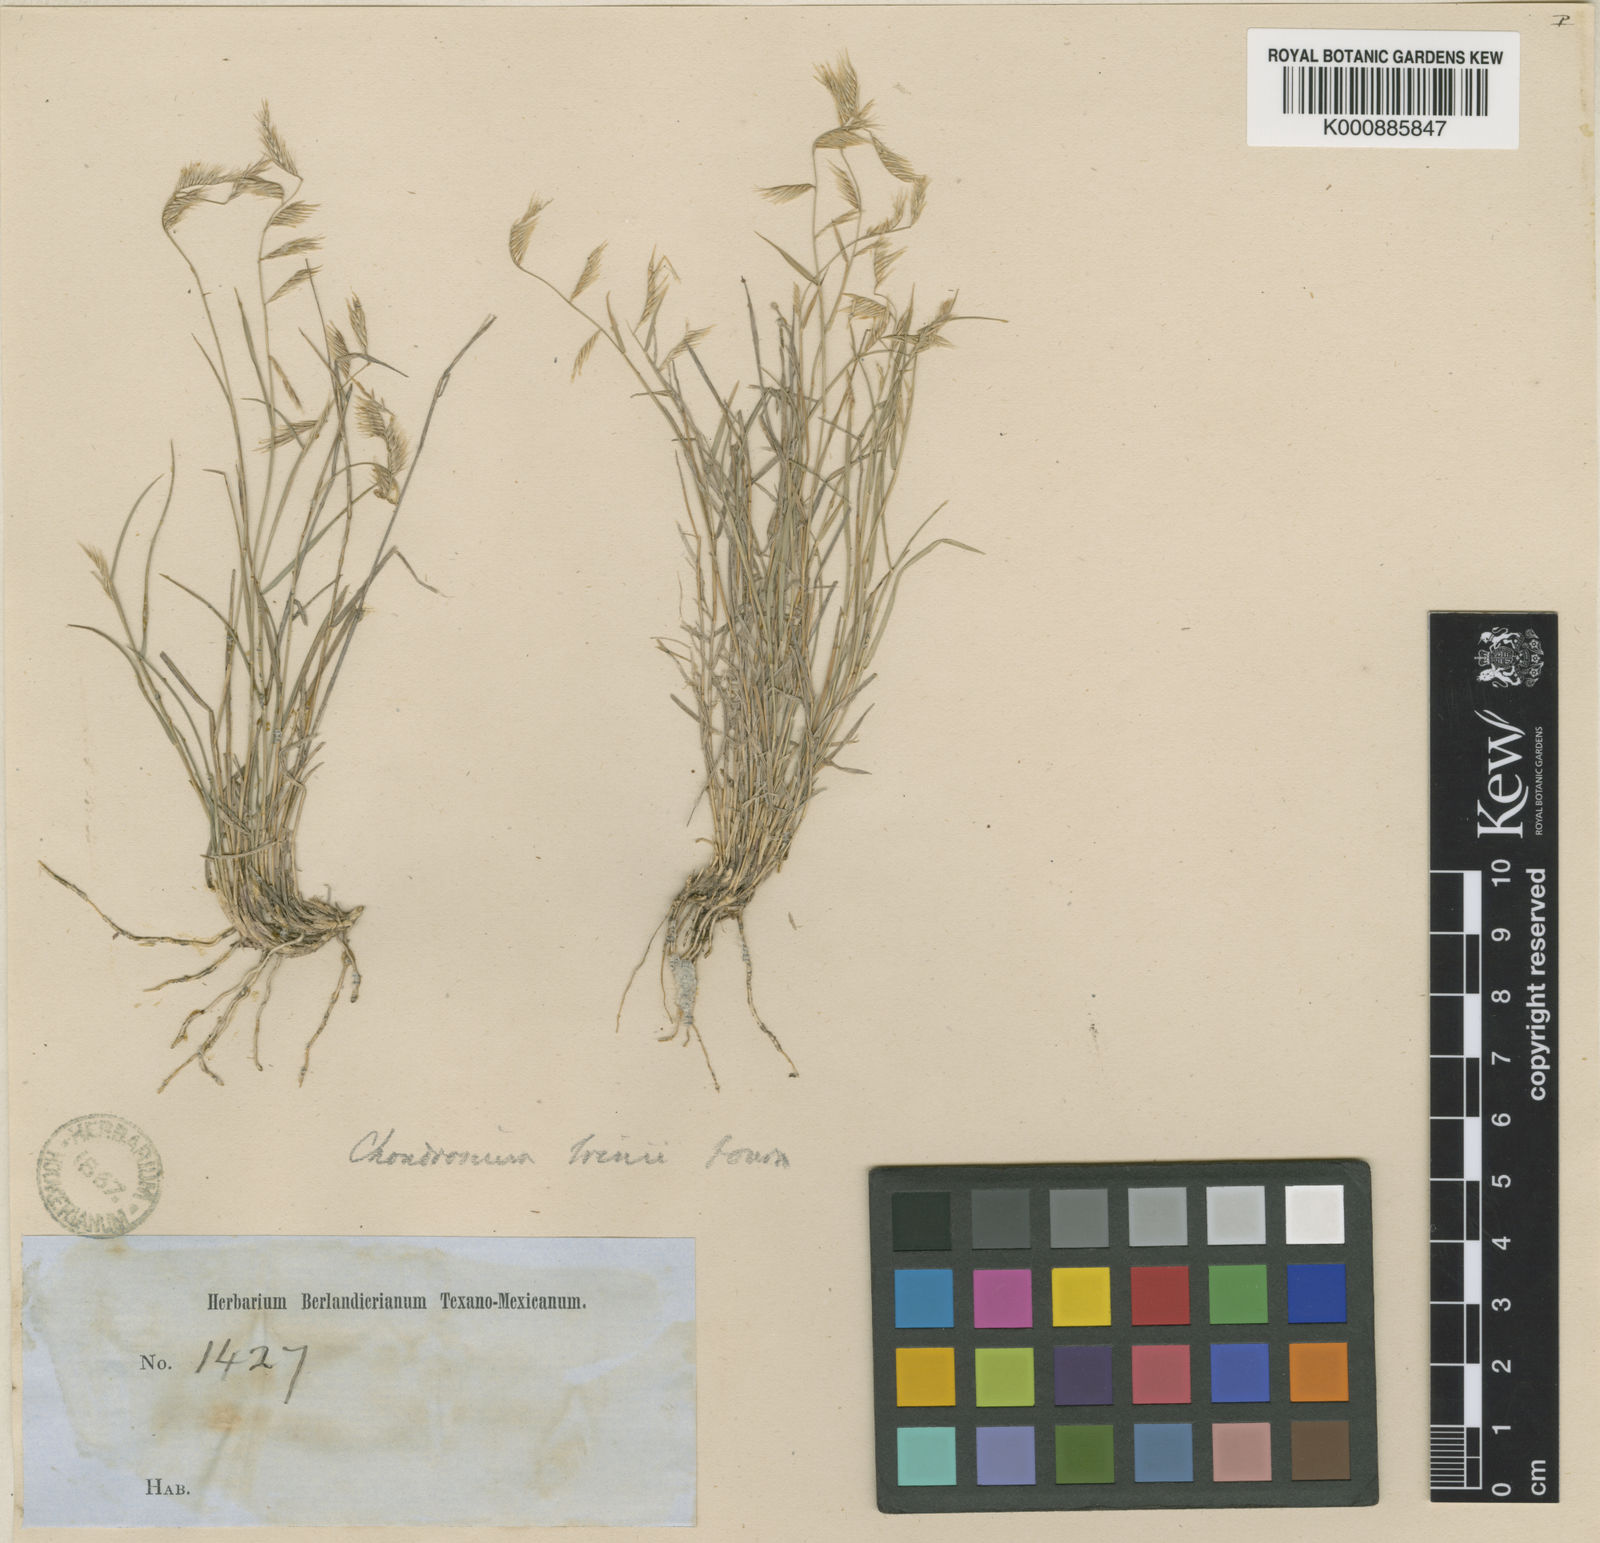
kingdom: Plantae
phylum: Tracheophyta
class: Liliopsida
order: Poales
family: Poaceae
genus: Bouteloua
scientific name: Bouteloua trifida
